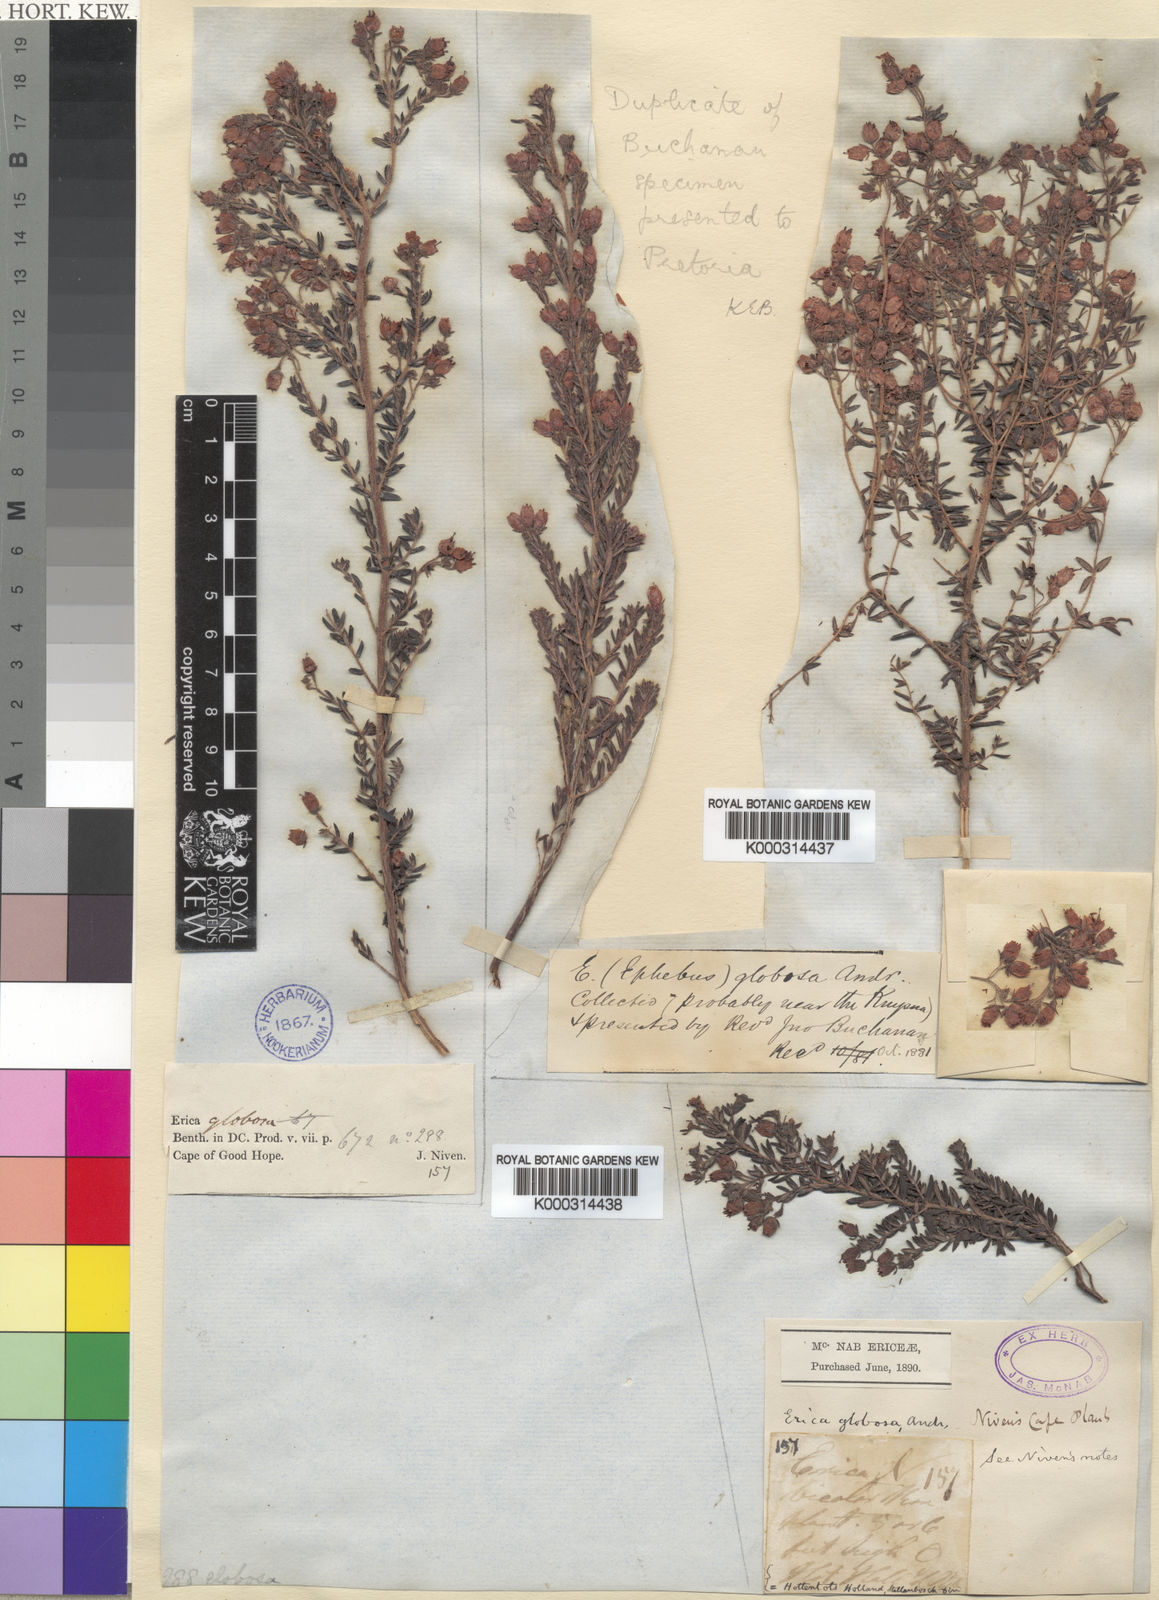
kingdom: Plantae
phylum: Tracheophyta
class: Magnoliopsida
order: Ericales
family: Ericaceae
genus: Erica
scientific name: Erica subterminalis
